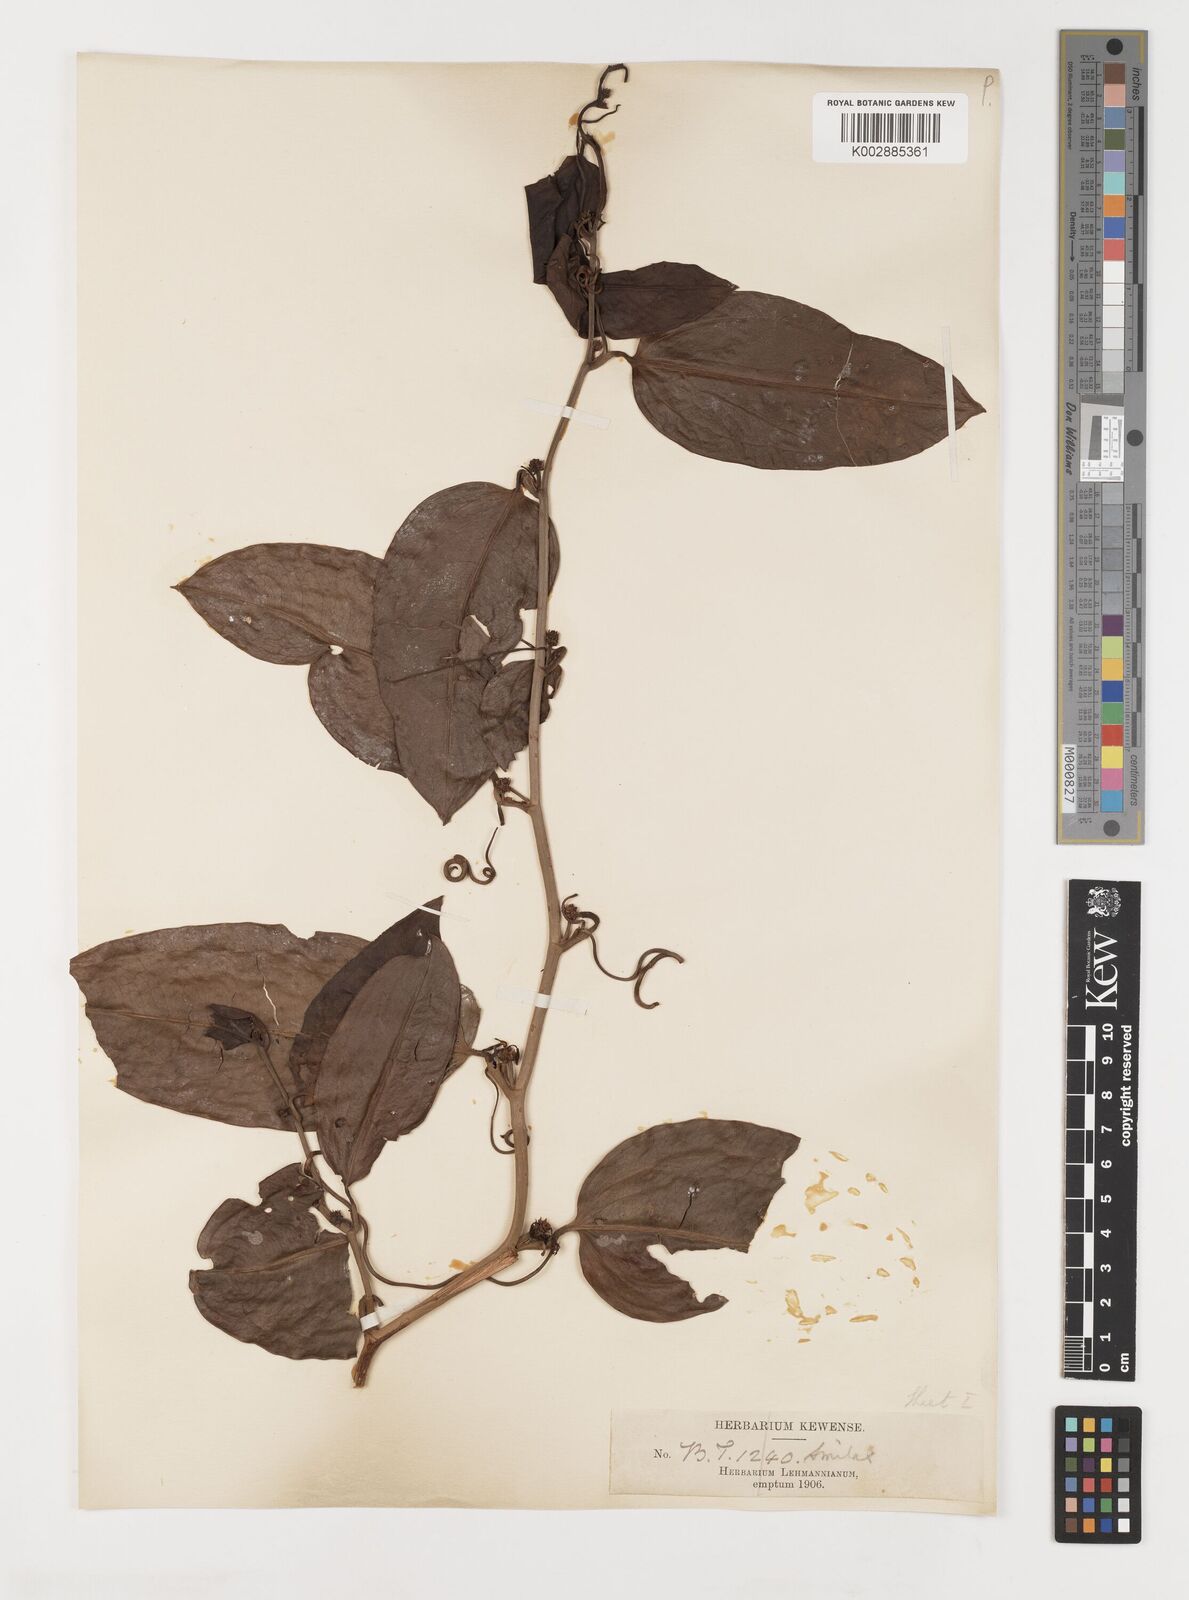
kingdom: Plantae
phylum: Tracheophyta
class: Liliopsida
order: Liliales
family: Smilacaceae
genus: Smilax
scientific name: Smilax
